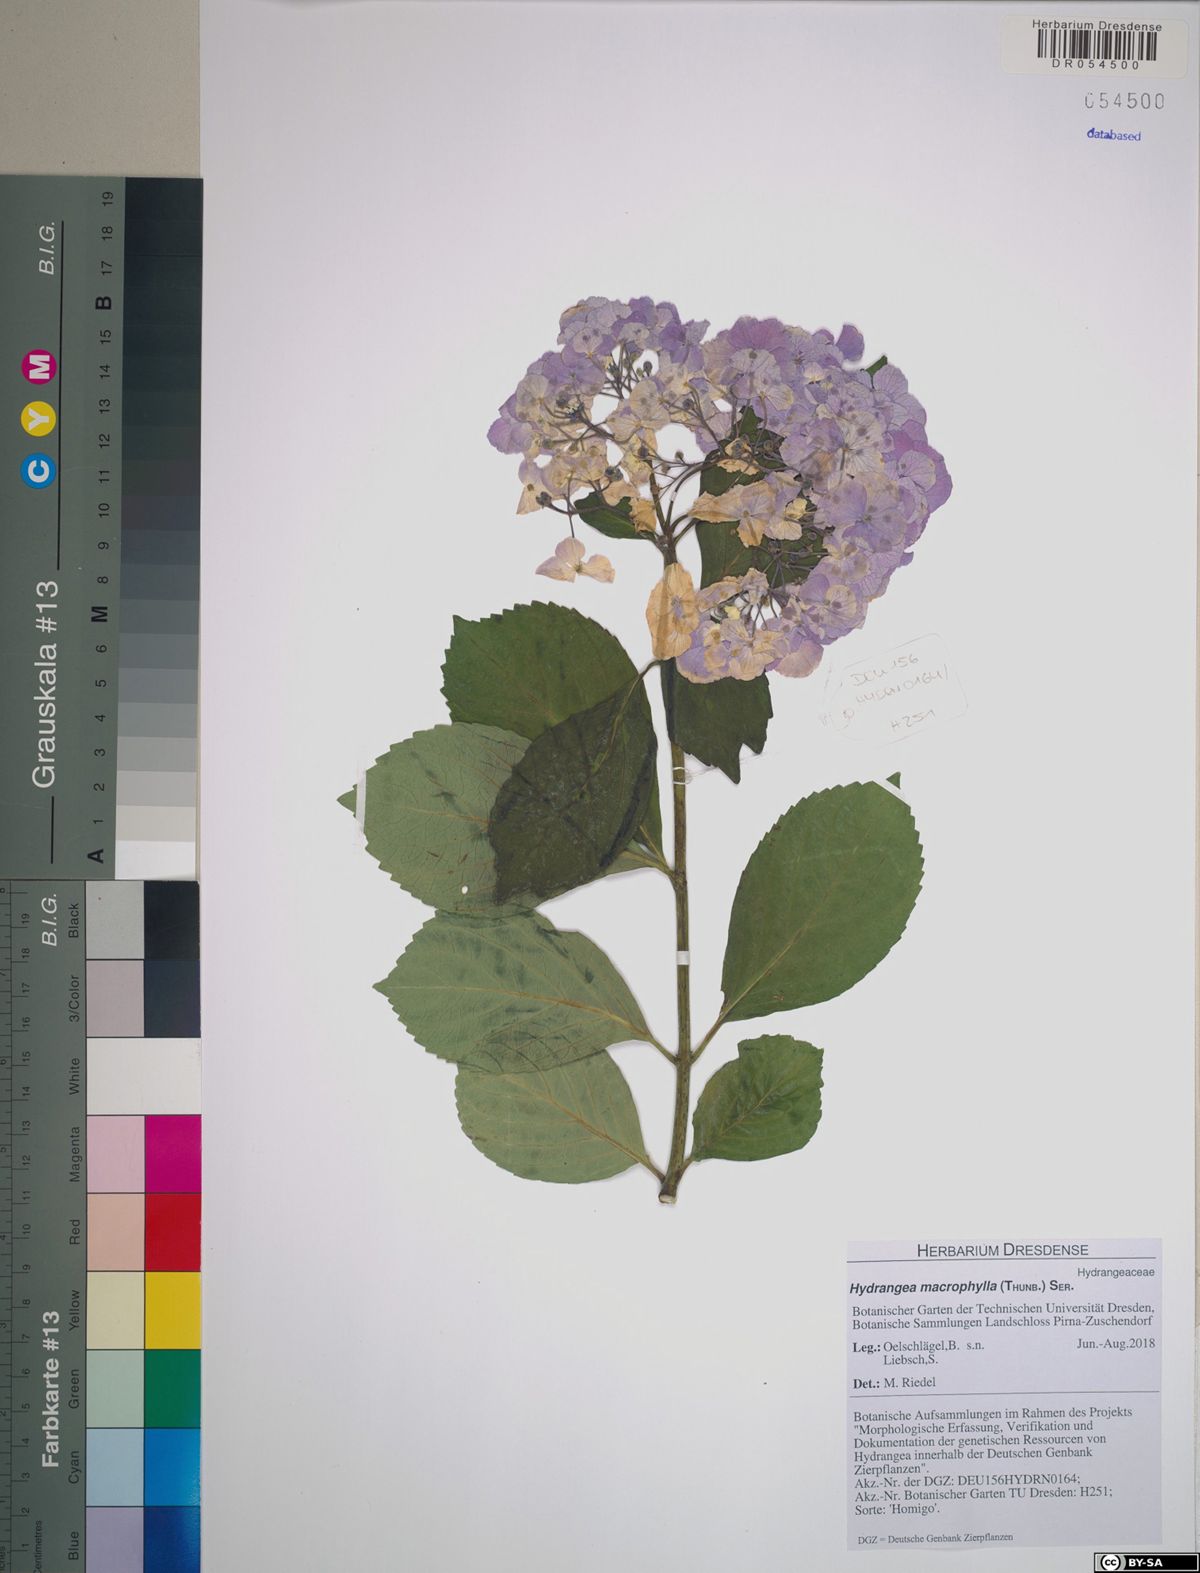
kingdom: Plantae
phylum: Tracheophyta
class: Magnoliopsida
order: Cornales
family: Hydrangeaceae
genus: Hydrangea
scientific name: Hydrangea macrophylla
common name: Hydrangea
